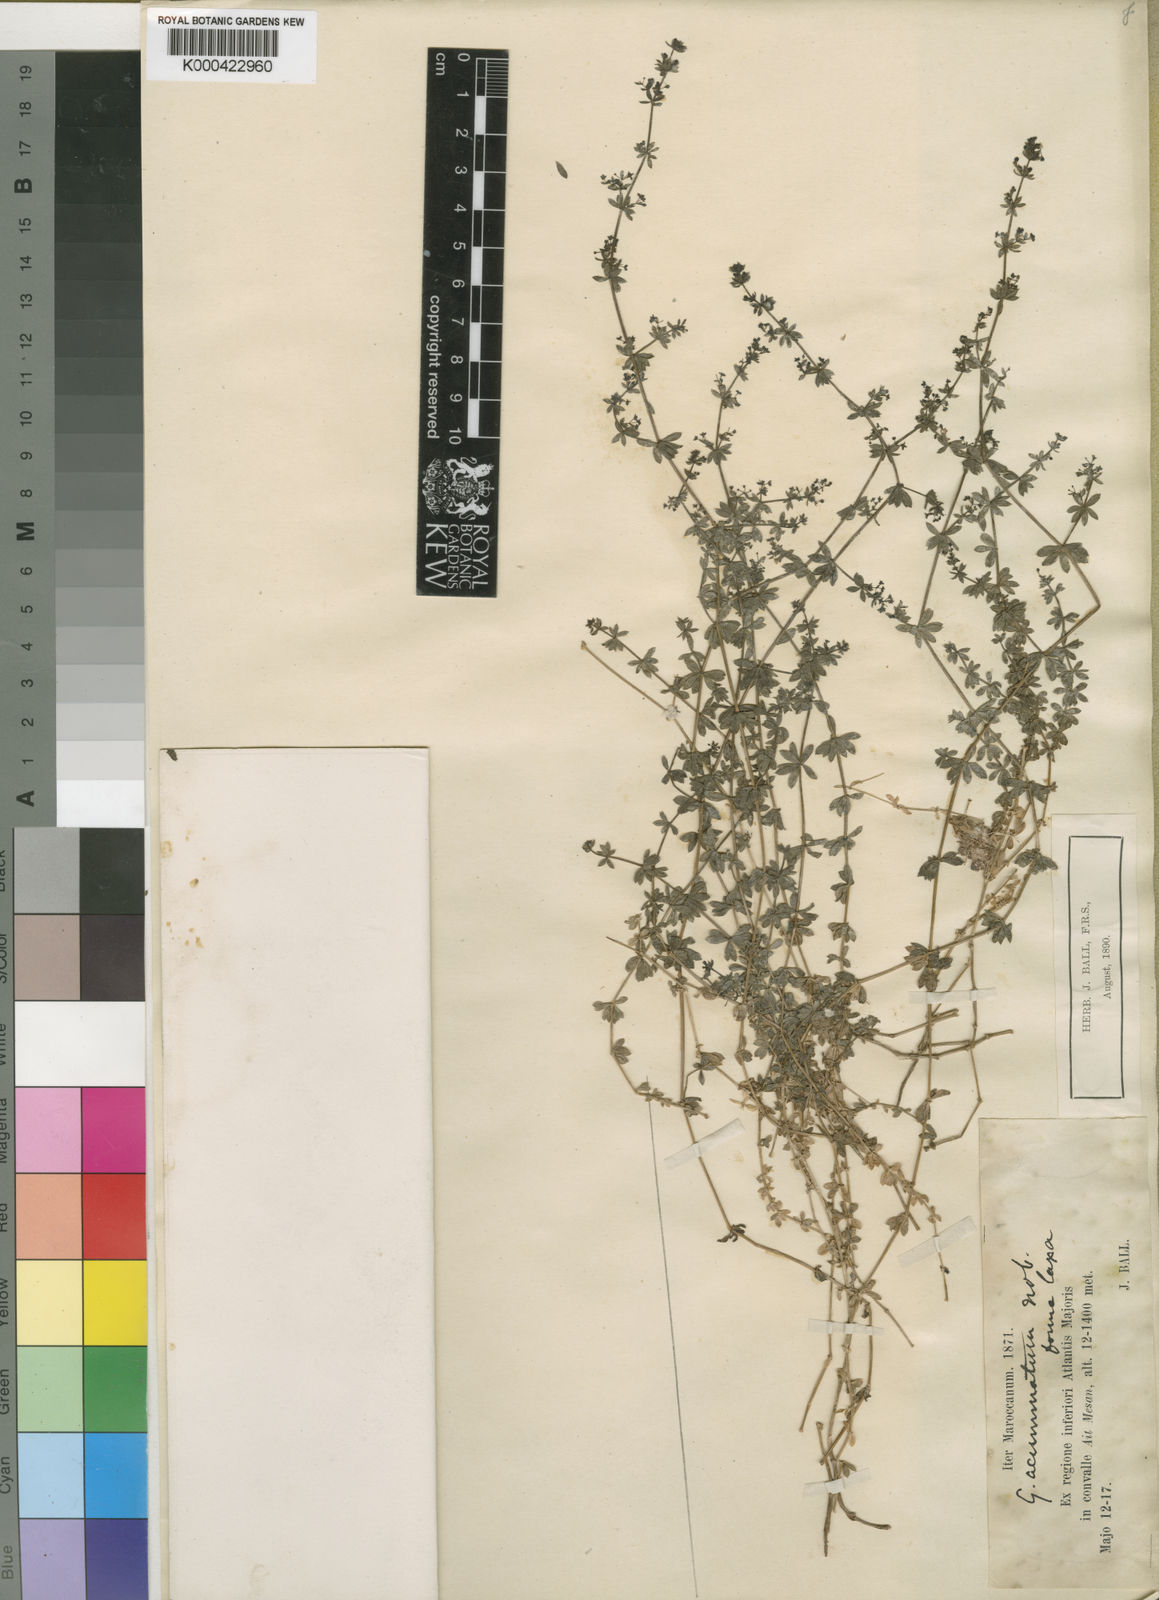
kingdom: Plantae
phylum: Tracheophyta
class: Magnoliopsida
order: Gentianales
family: Rubiaceae
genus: Galium
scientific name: Galium acuminatum
